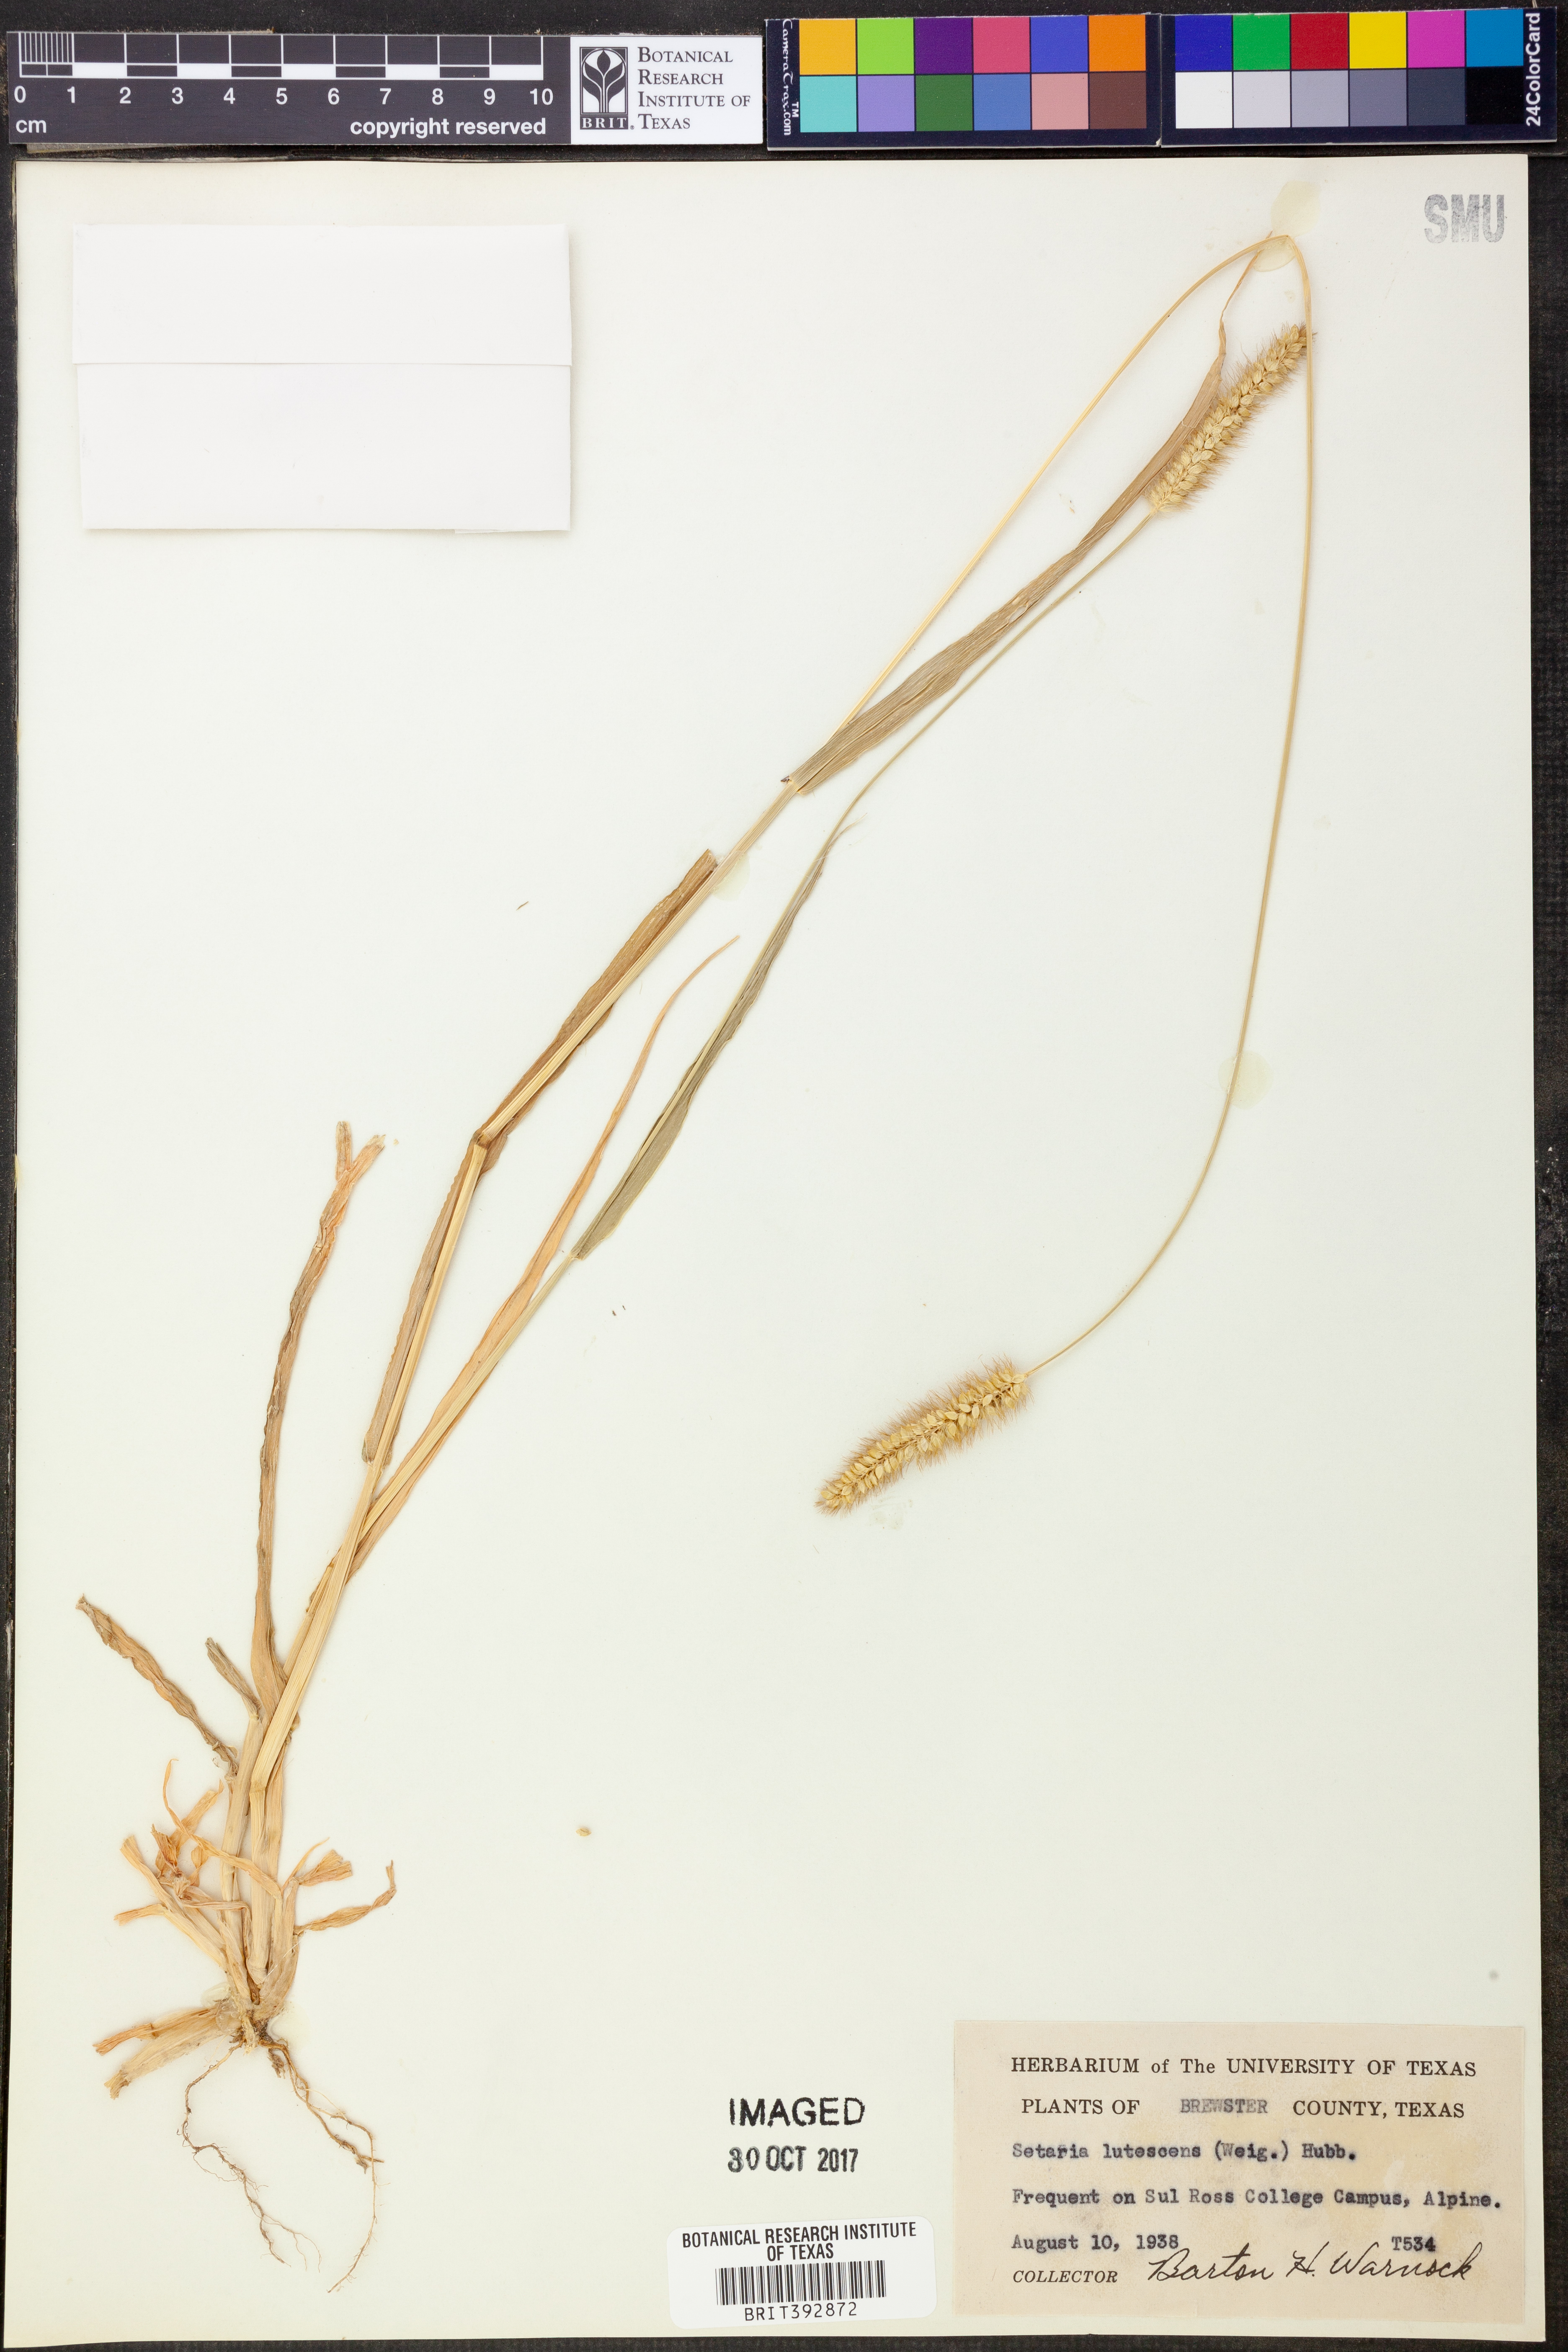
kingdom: Plantae
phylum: Tracheophyta
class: Liliopsida
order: Poales
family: Poaceae
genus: Cenchrus
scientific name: Cenchrus americanus
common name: Pearl millet
